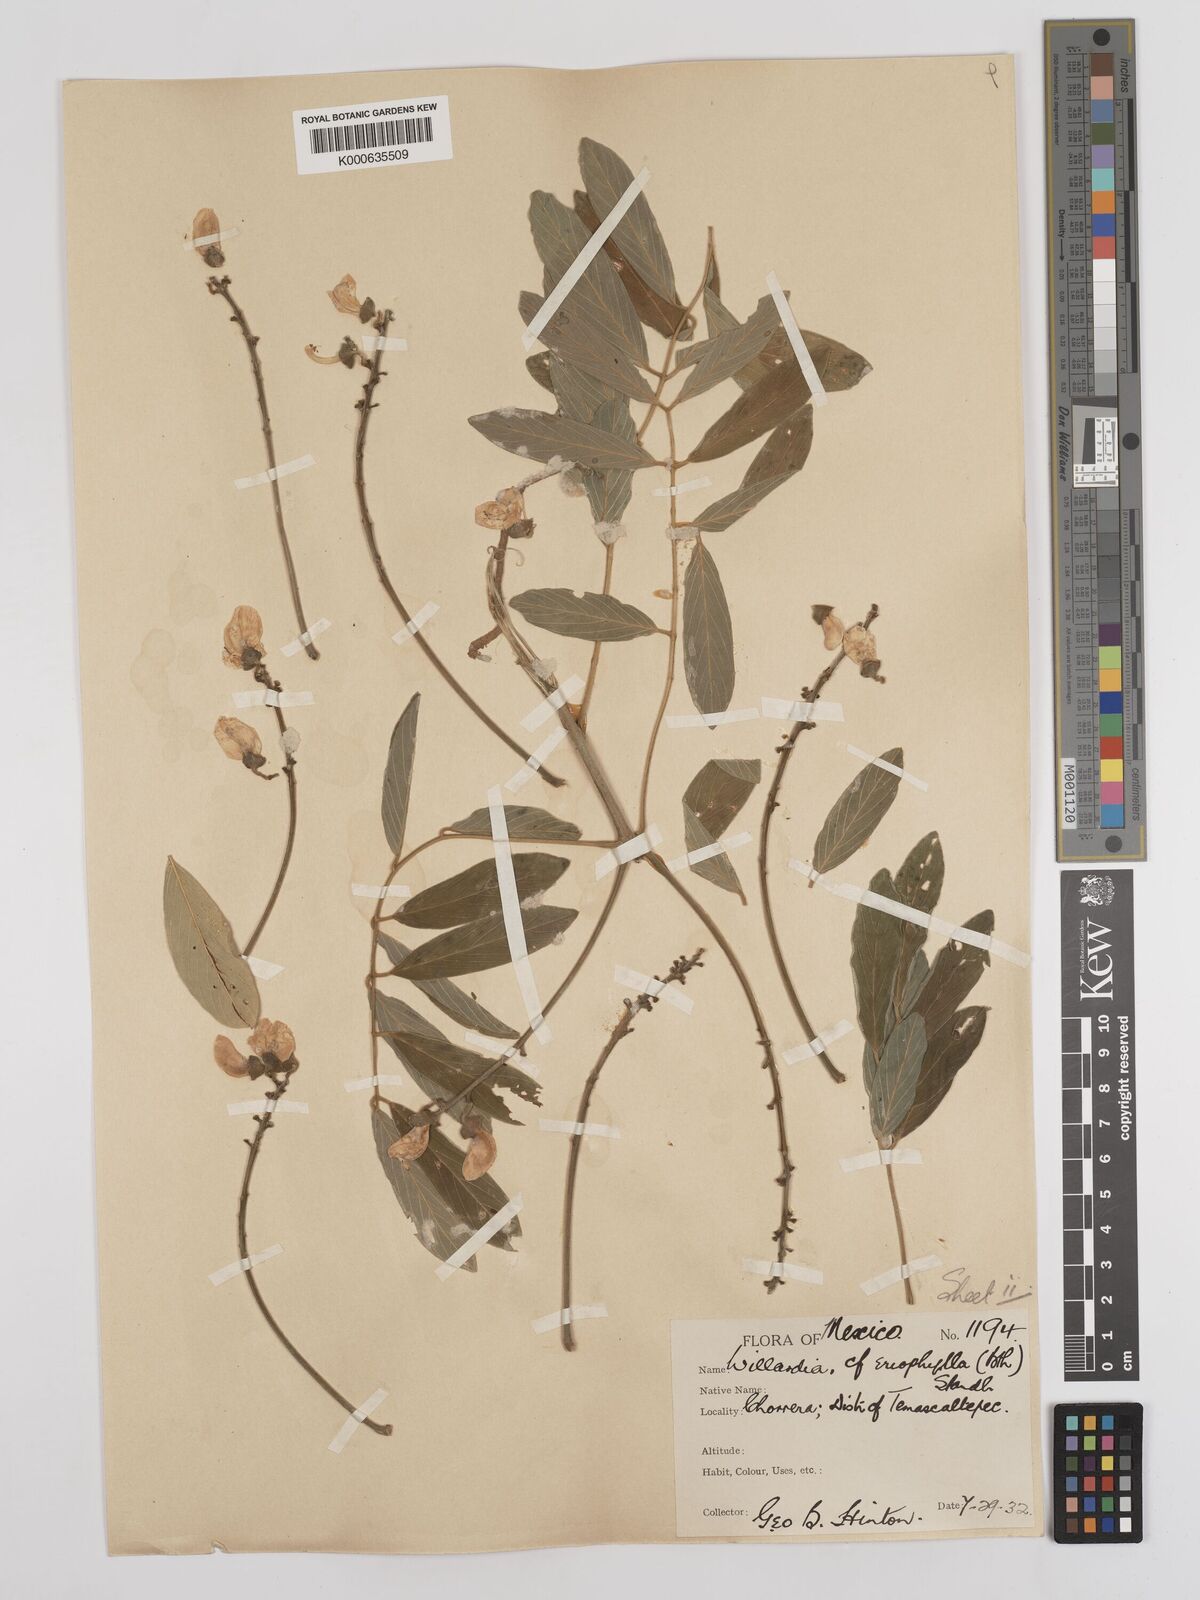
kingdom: Plantae
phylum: Tracheophyta
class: Magnoliopsida
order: Fabales
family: Fabaceae
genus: Lonchocarpus
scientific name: Lonchocarpus argyrotrichus
